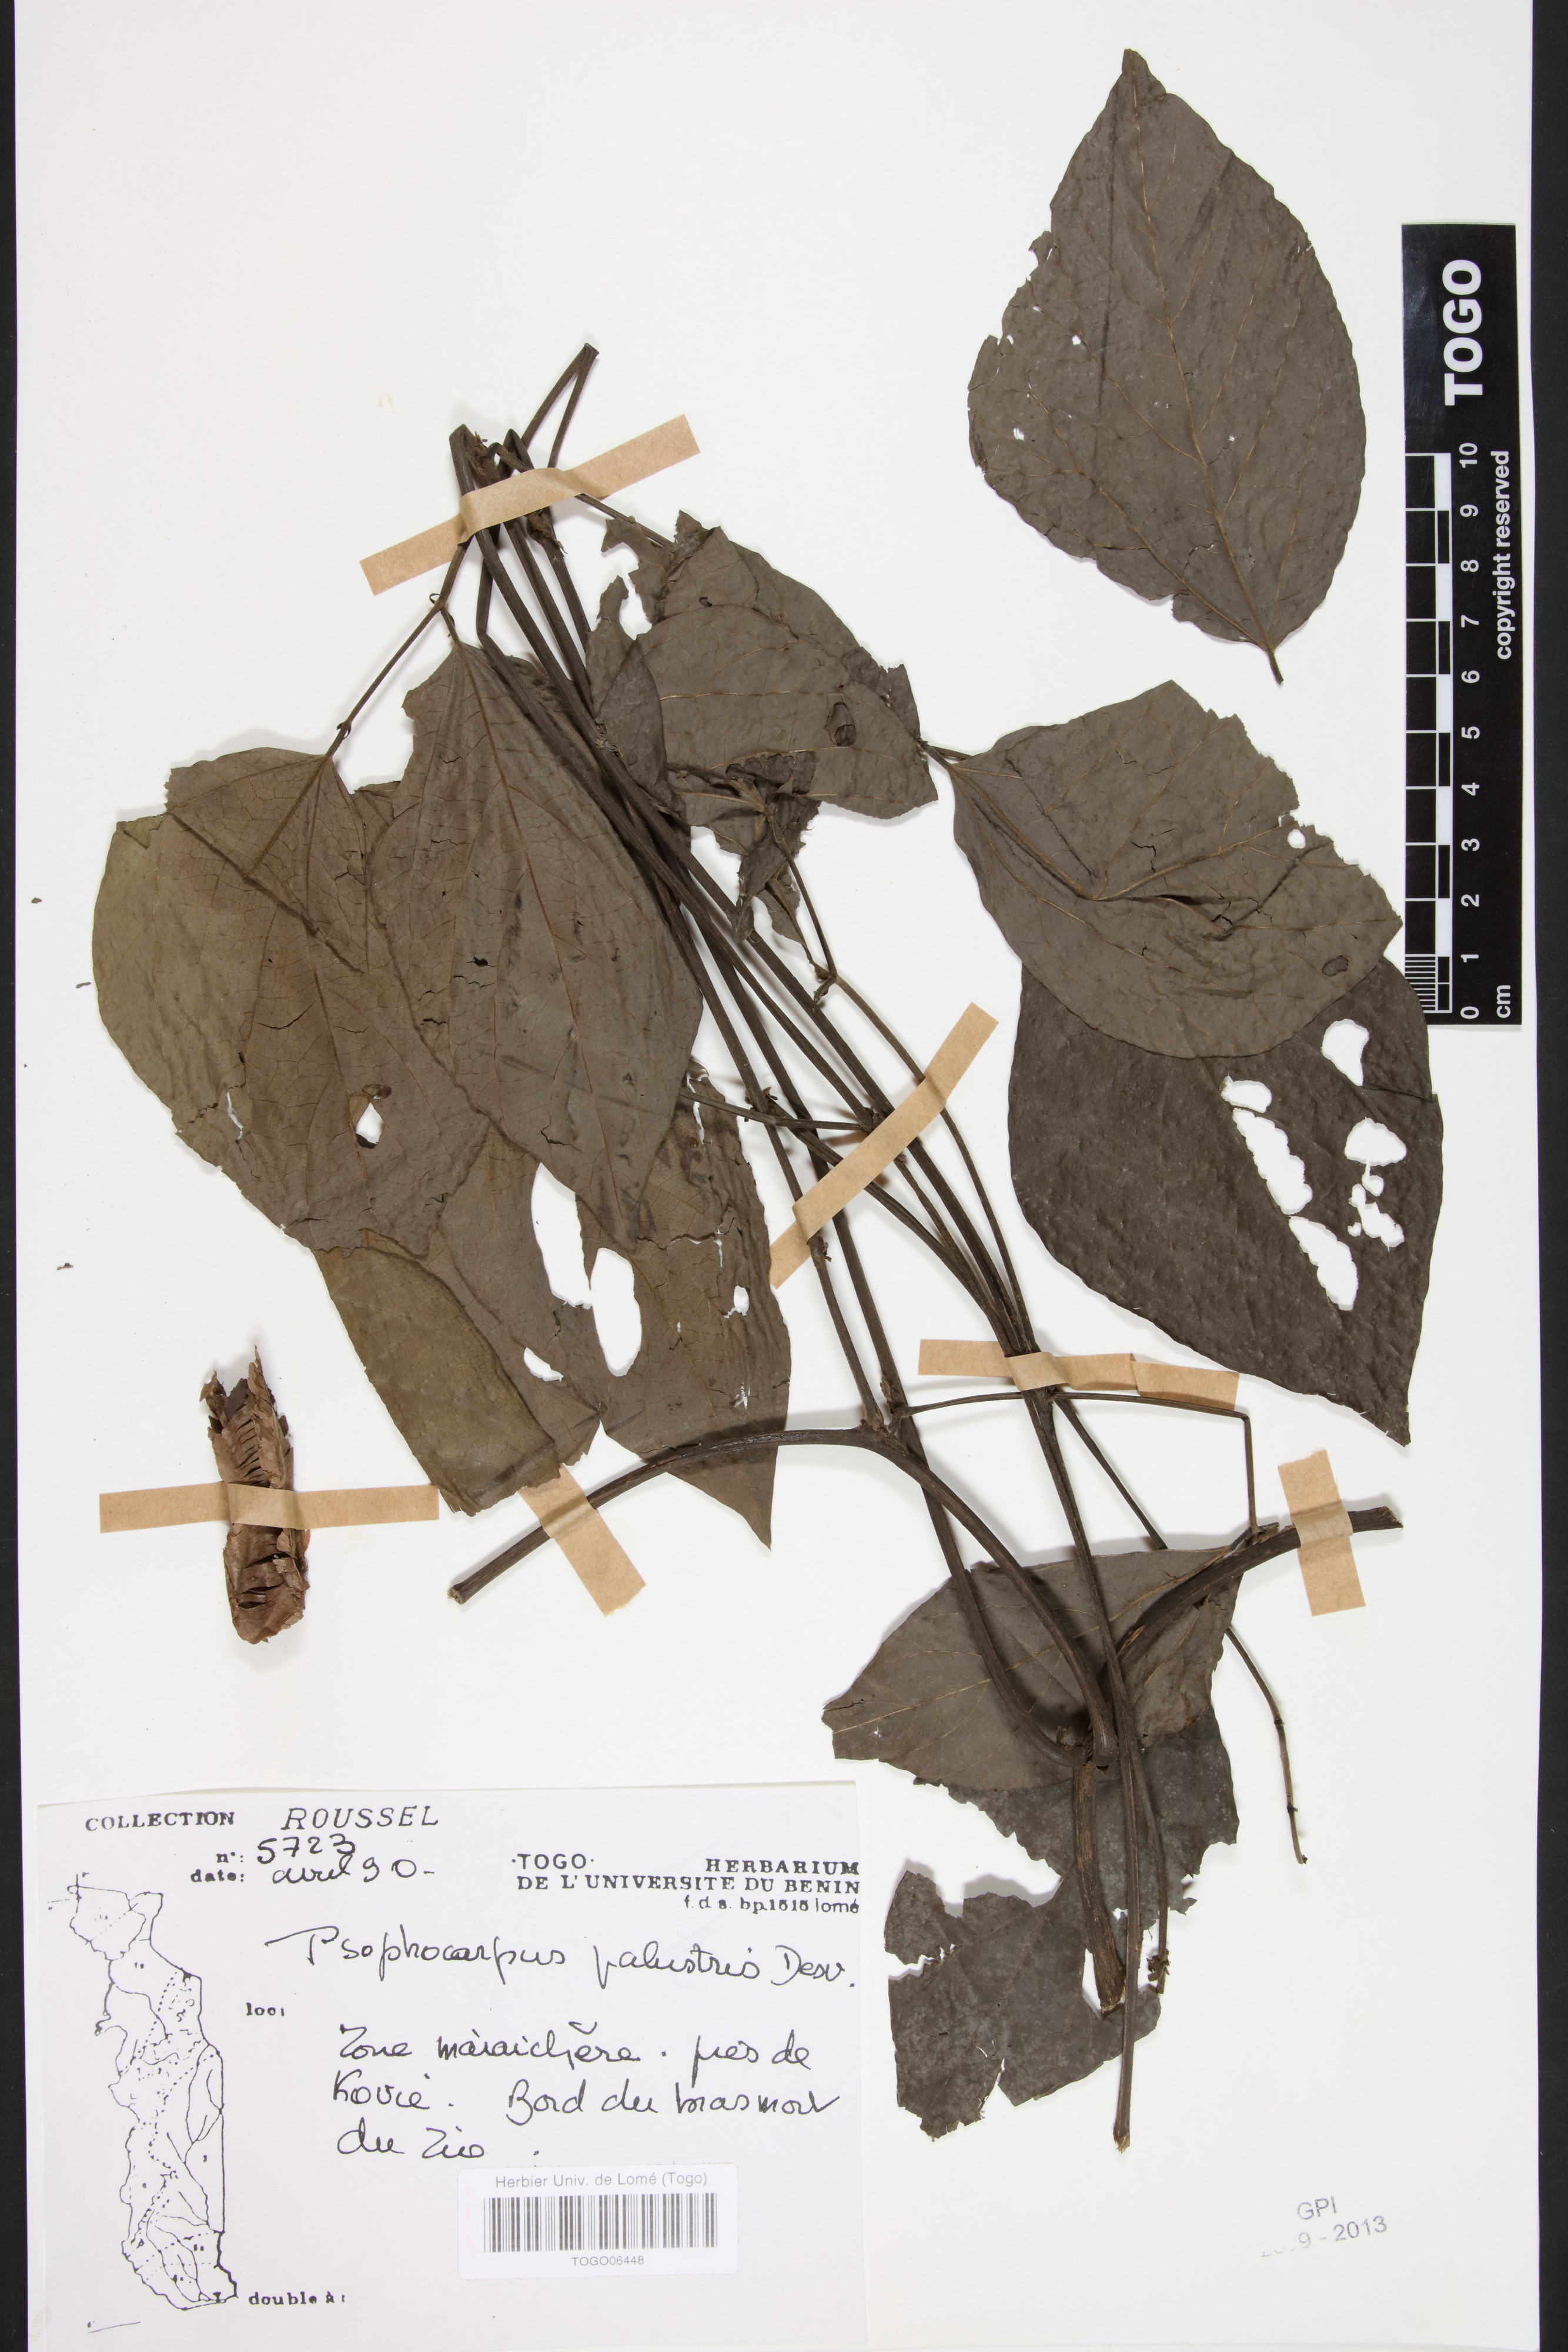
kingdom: Plantae
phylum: Tracheophyta
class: Magnoliopsida
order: Fabales
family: Fabaceae
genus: Psophocarpus
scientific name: Psophocarpus palustris
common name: African winged-bean
